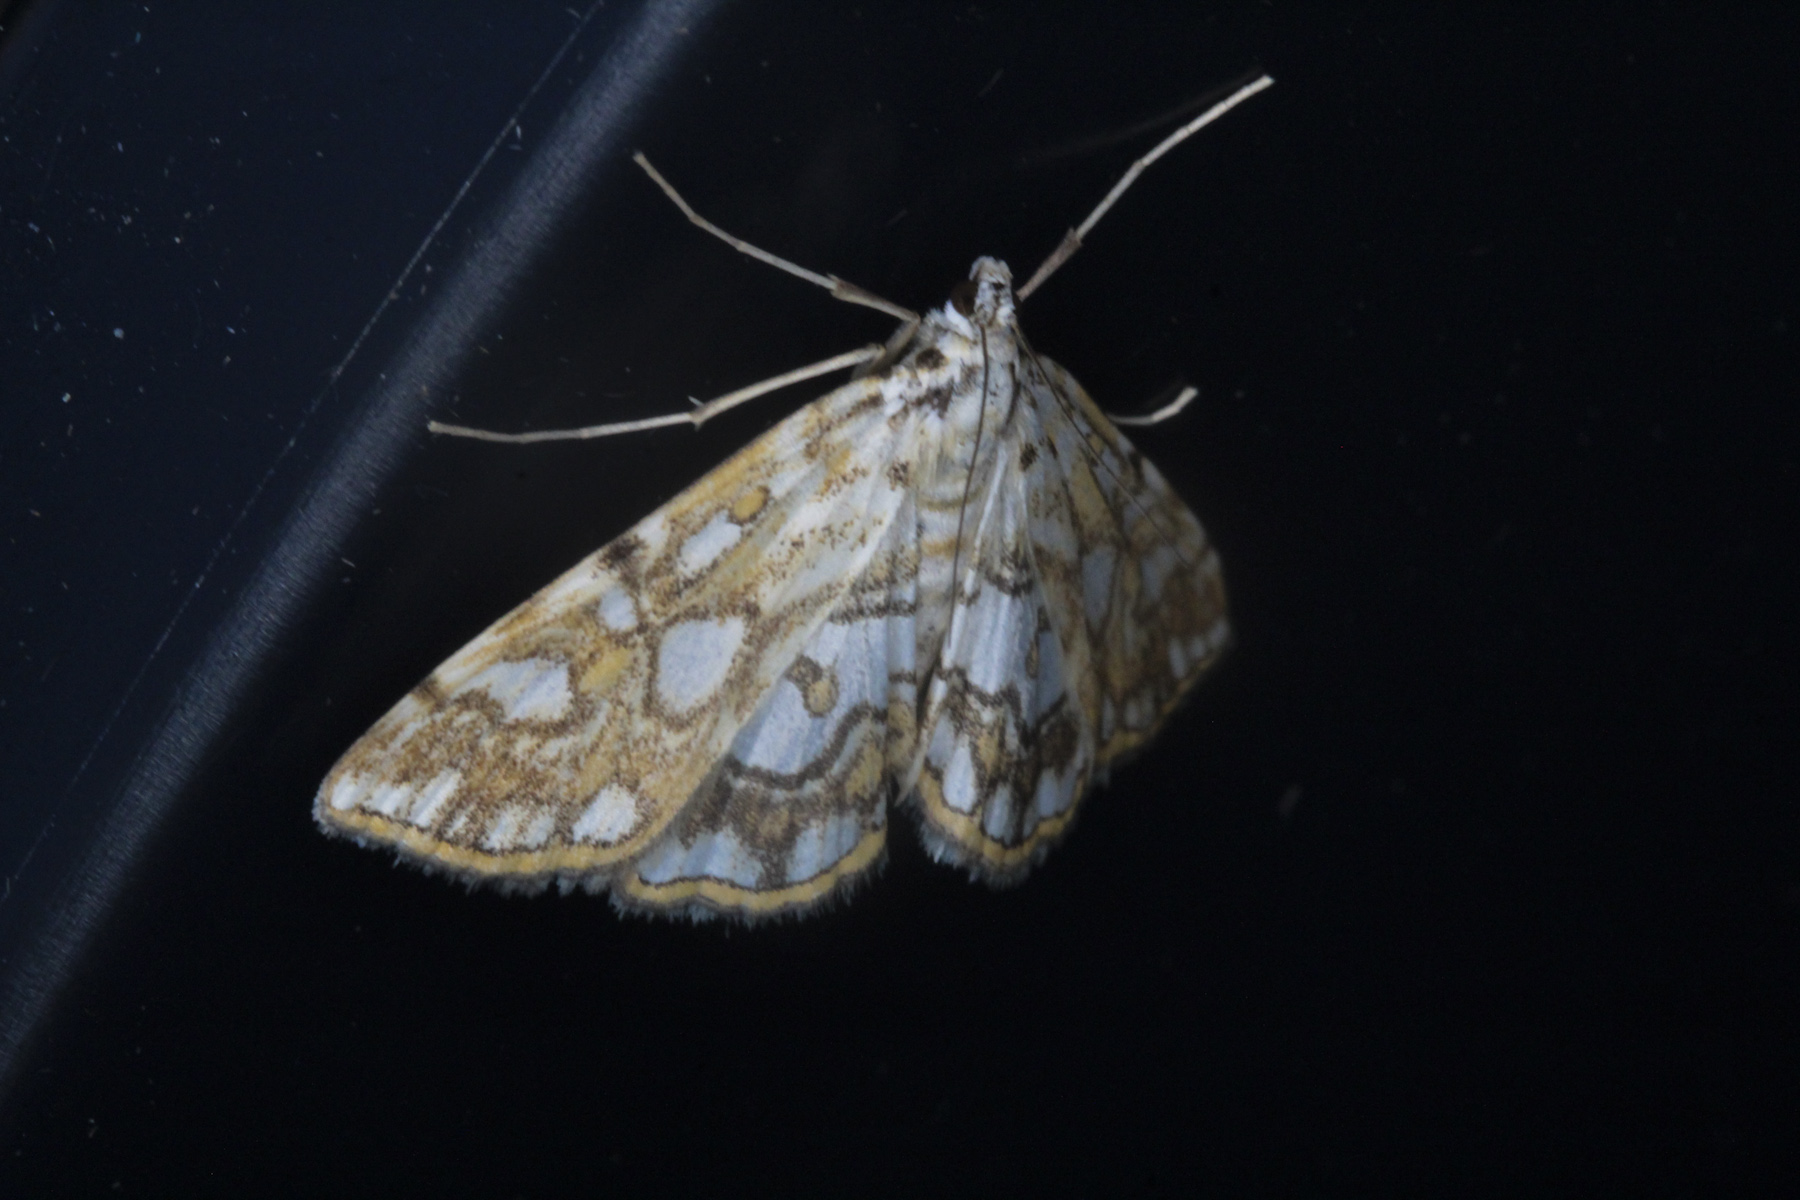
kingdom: Animalia
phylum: Arthropoda
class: Insecta
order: Lepidoptera
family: Crambidae
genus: Elophila
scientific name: Elophila nymphaeata
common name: Brown china-mark
